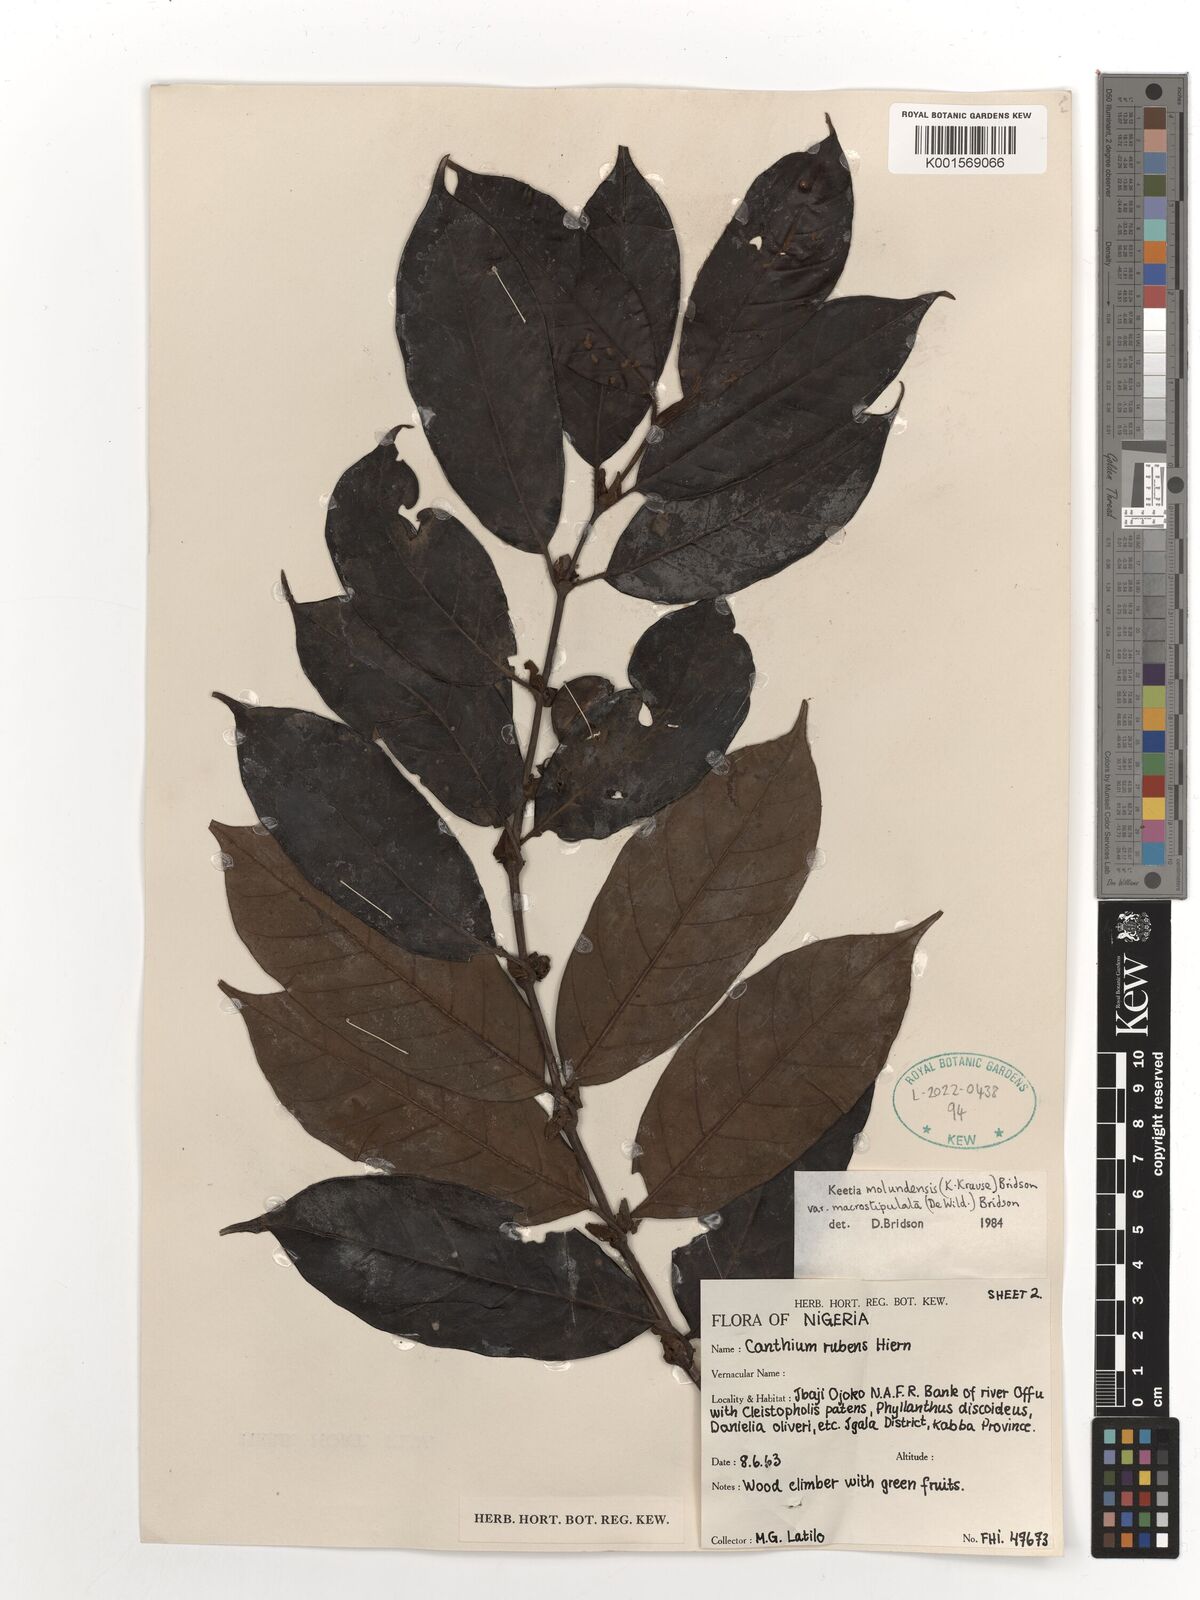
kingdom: Plantae
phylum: Tracheophyta
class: Magnoliopsida
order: Gentianales
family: Rubiaceae
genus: Keetia
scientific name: Keetia molundensis
